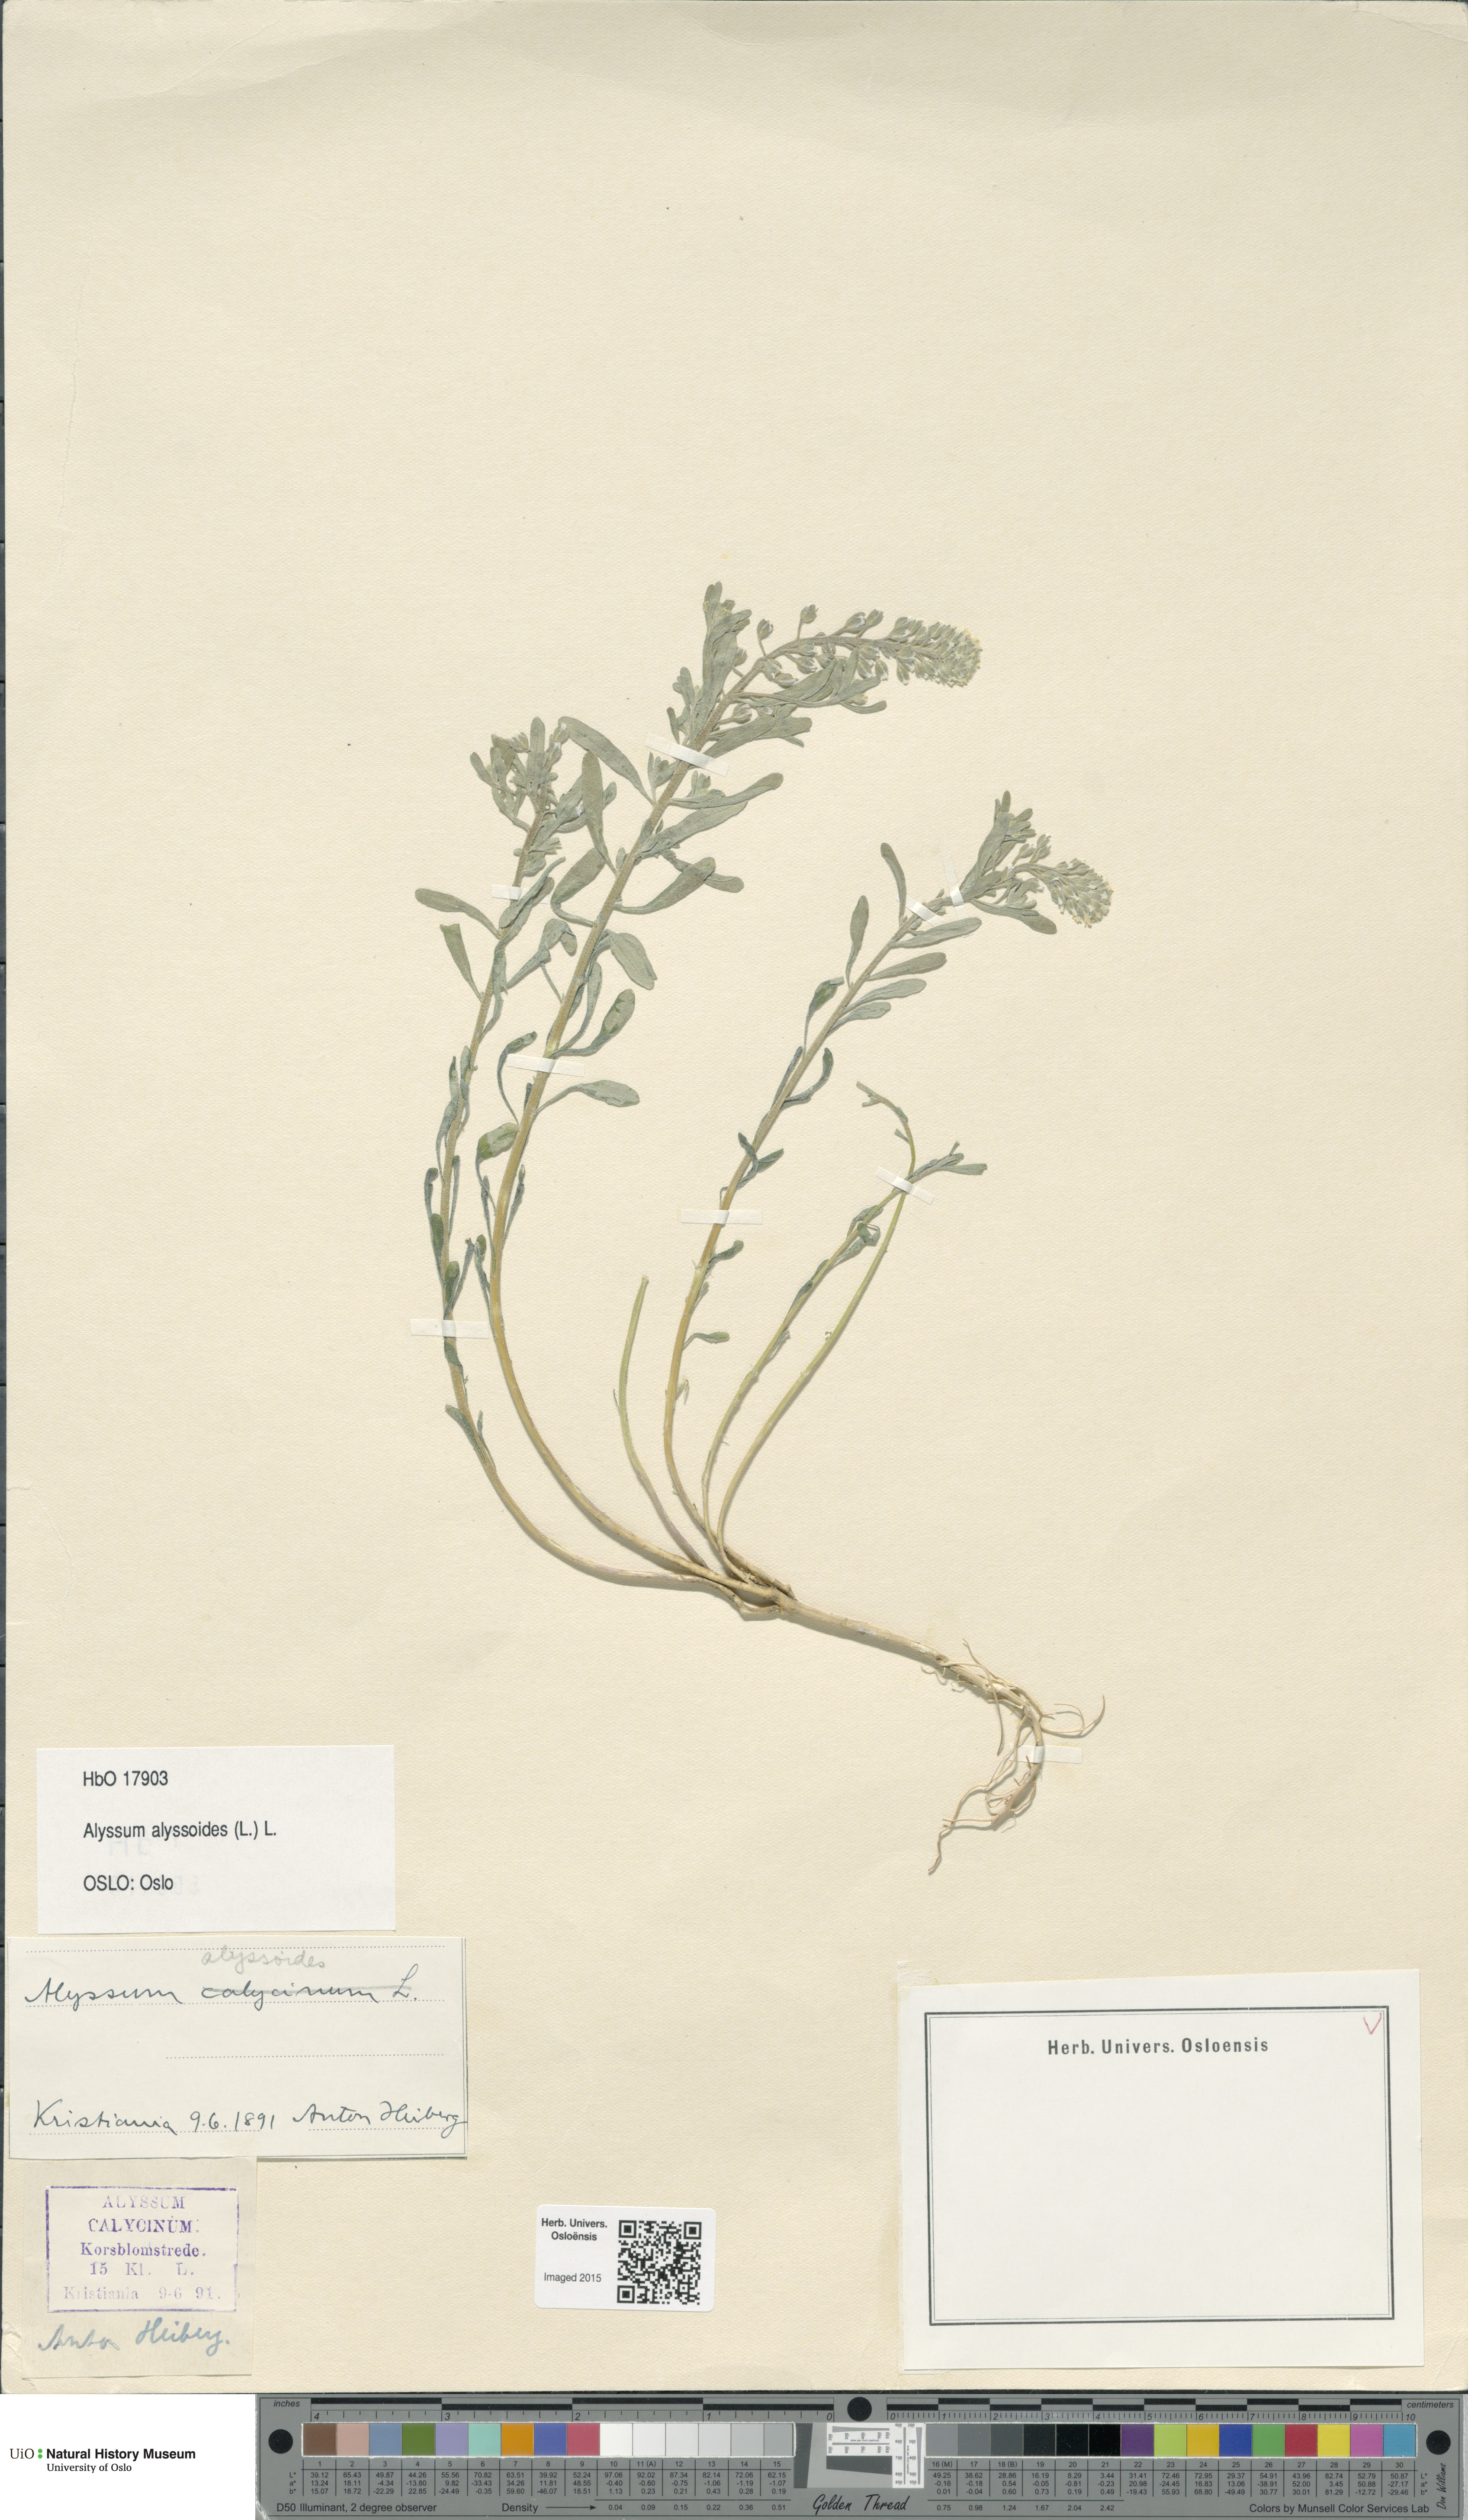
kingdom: Plantae
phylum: Tracheophyta
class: Magnoliopsida
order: Brassicales
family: Brassicaceae
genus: Alyssum
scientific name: Alyssum alyssoides
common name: Small alison
